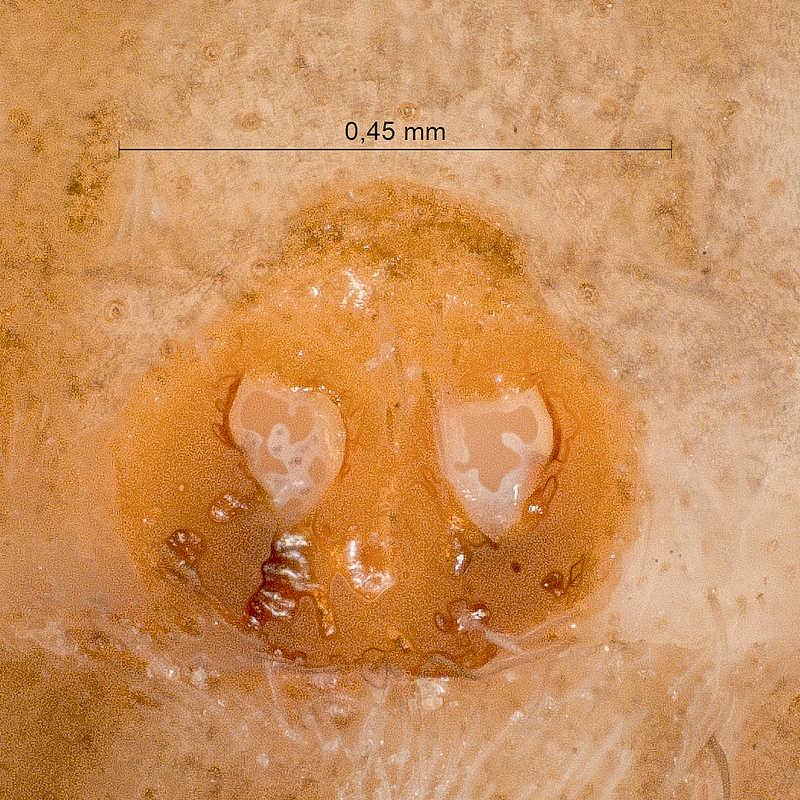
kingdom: Animalia
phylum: Arthropoda
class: Arachnida
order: Araneae
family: Lycosidae
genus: Xerolycosa
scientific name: Xerolycosa miniata
